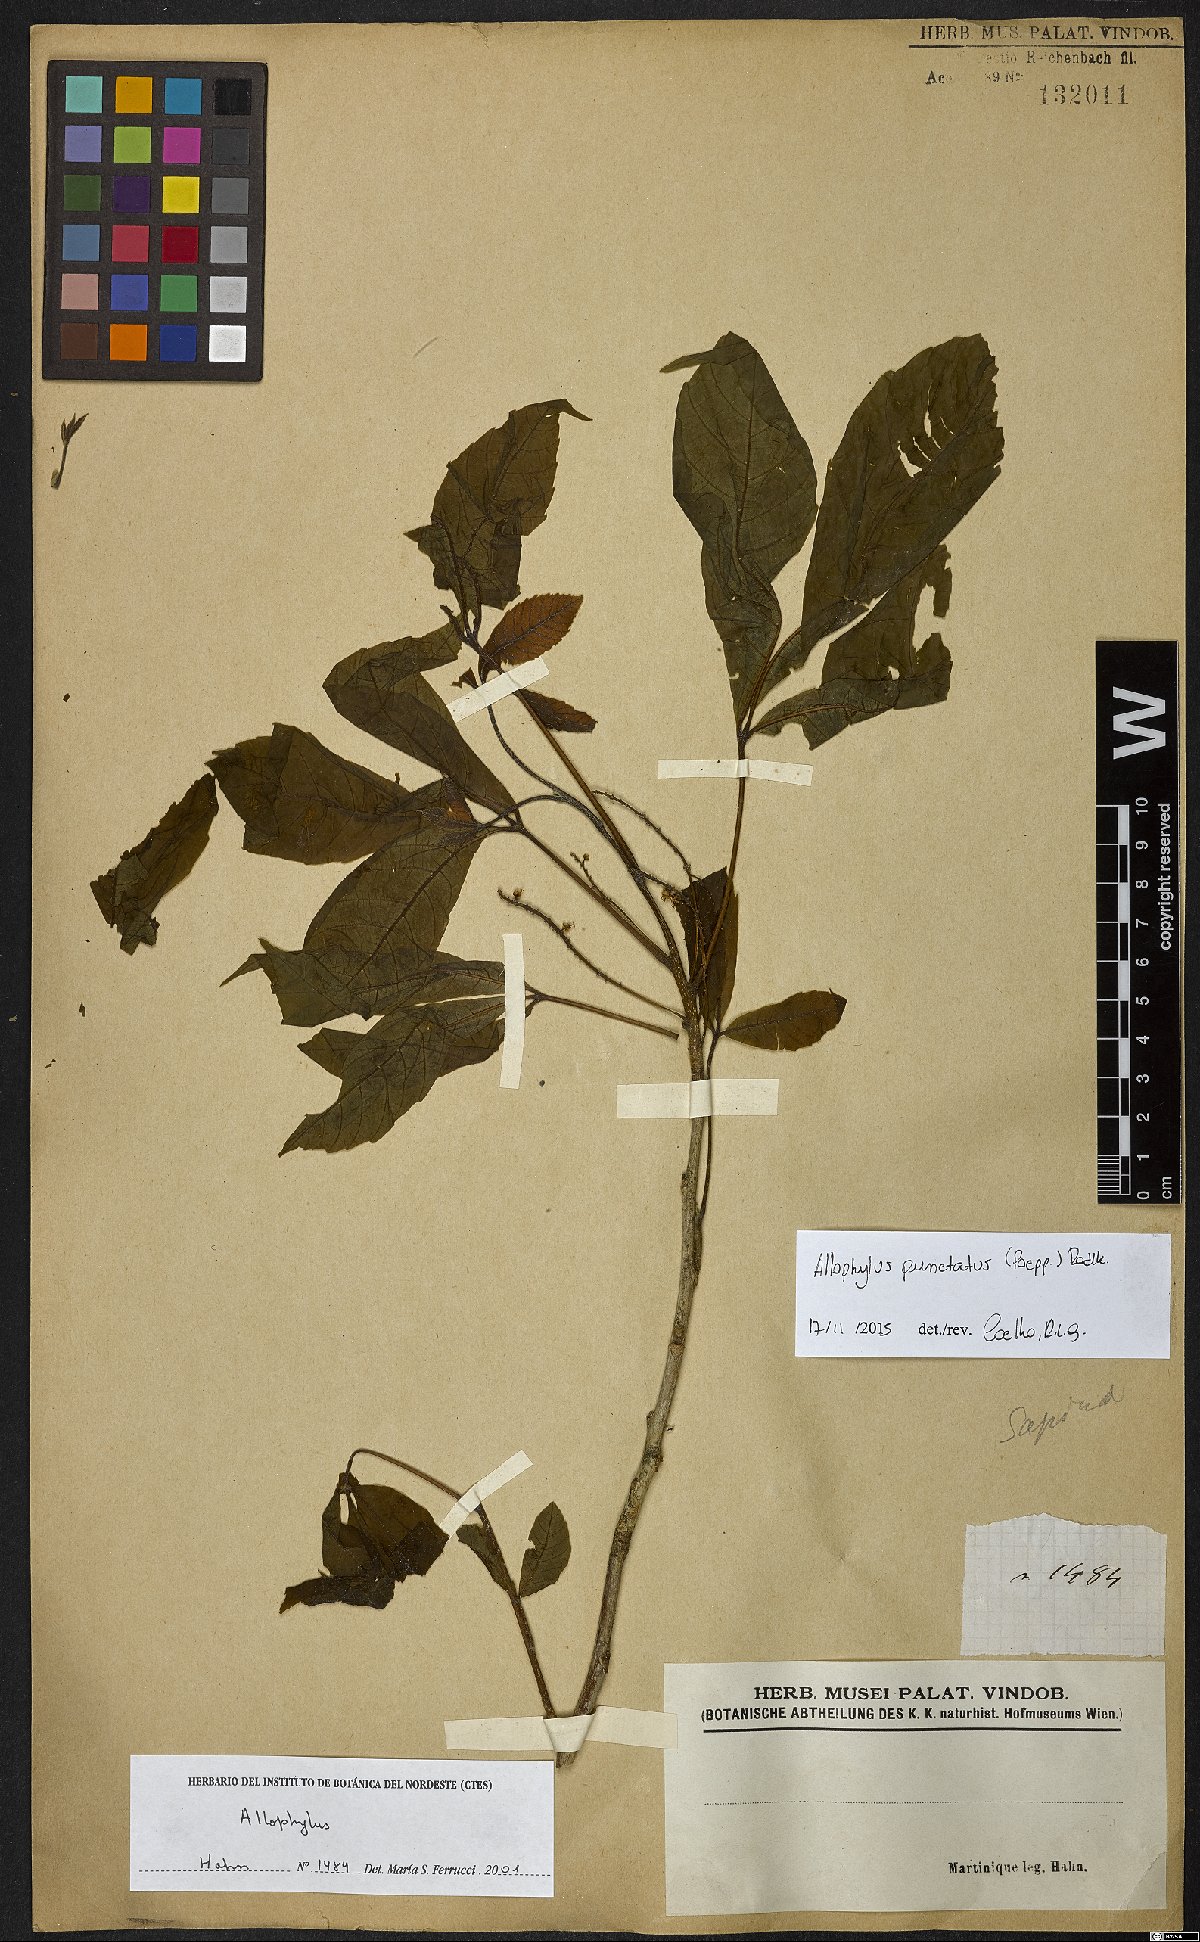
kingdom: Plantae
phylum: Tracheophyta
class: Magnoliopsida
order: Sapindales
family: Sapindaceae
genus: Allophylus
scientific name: Allophylus punctatus
